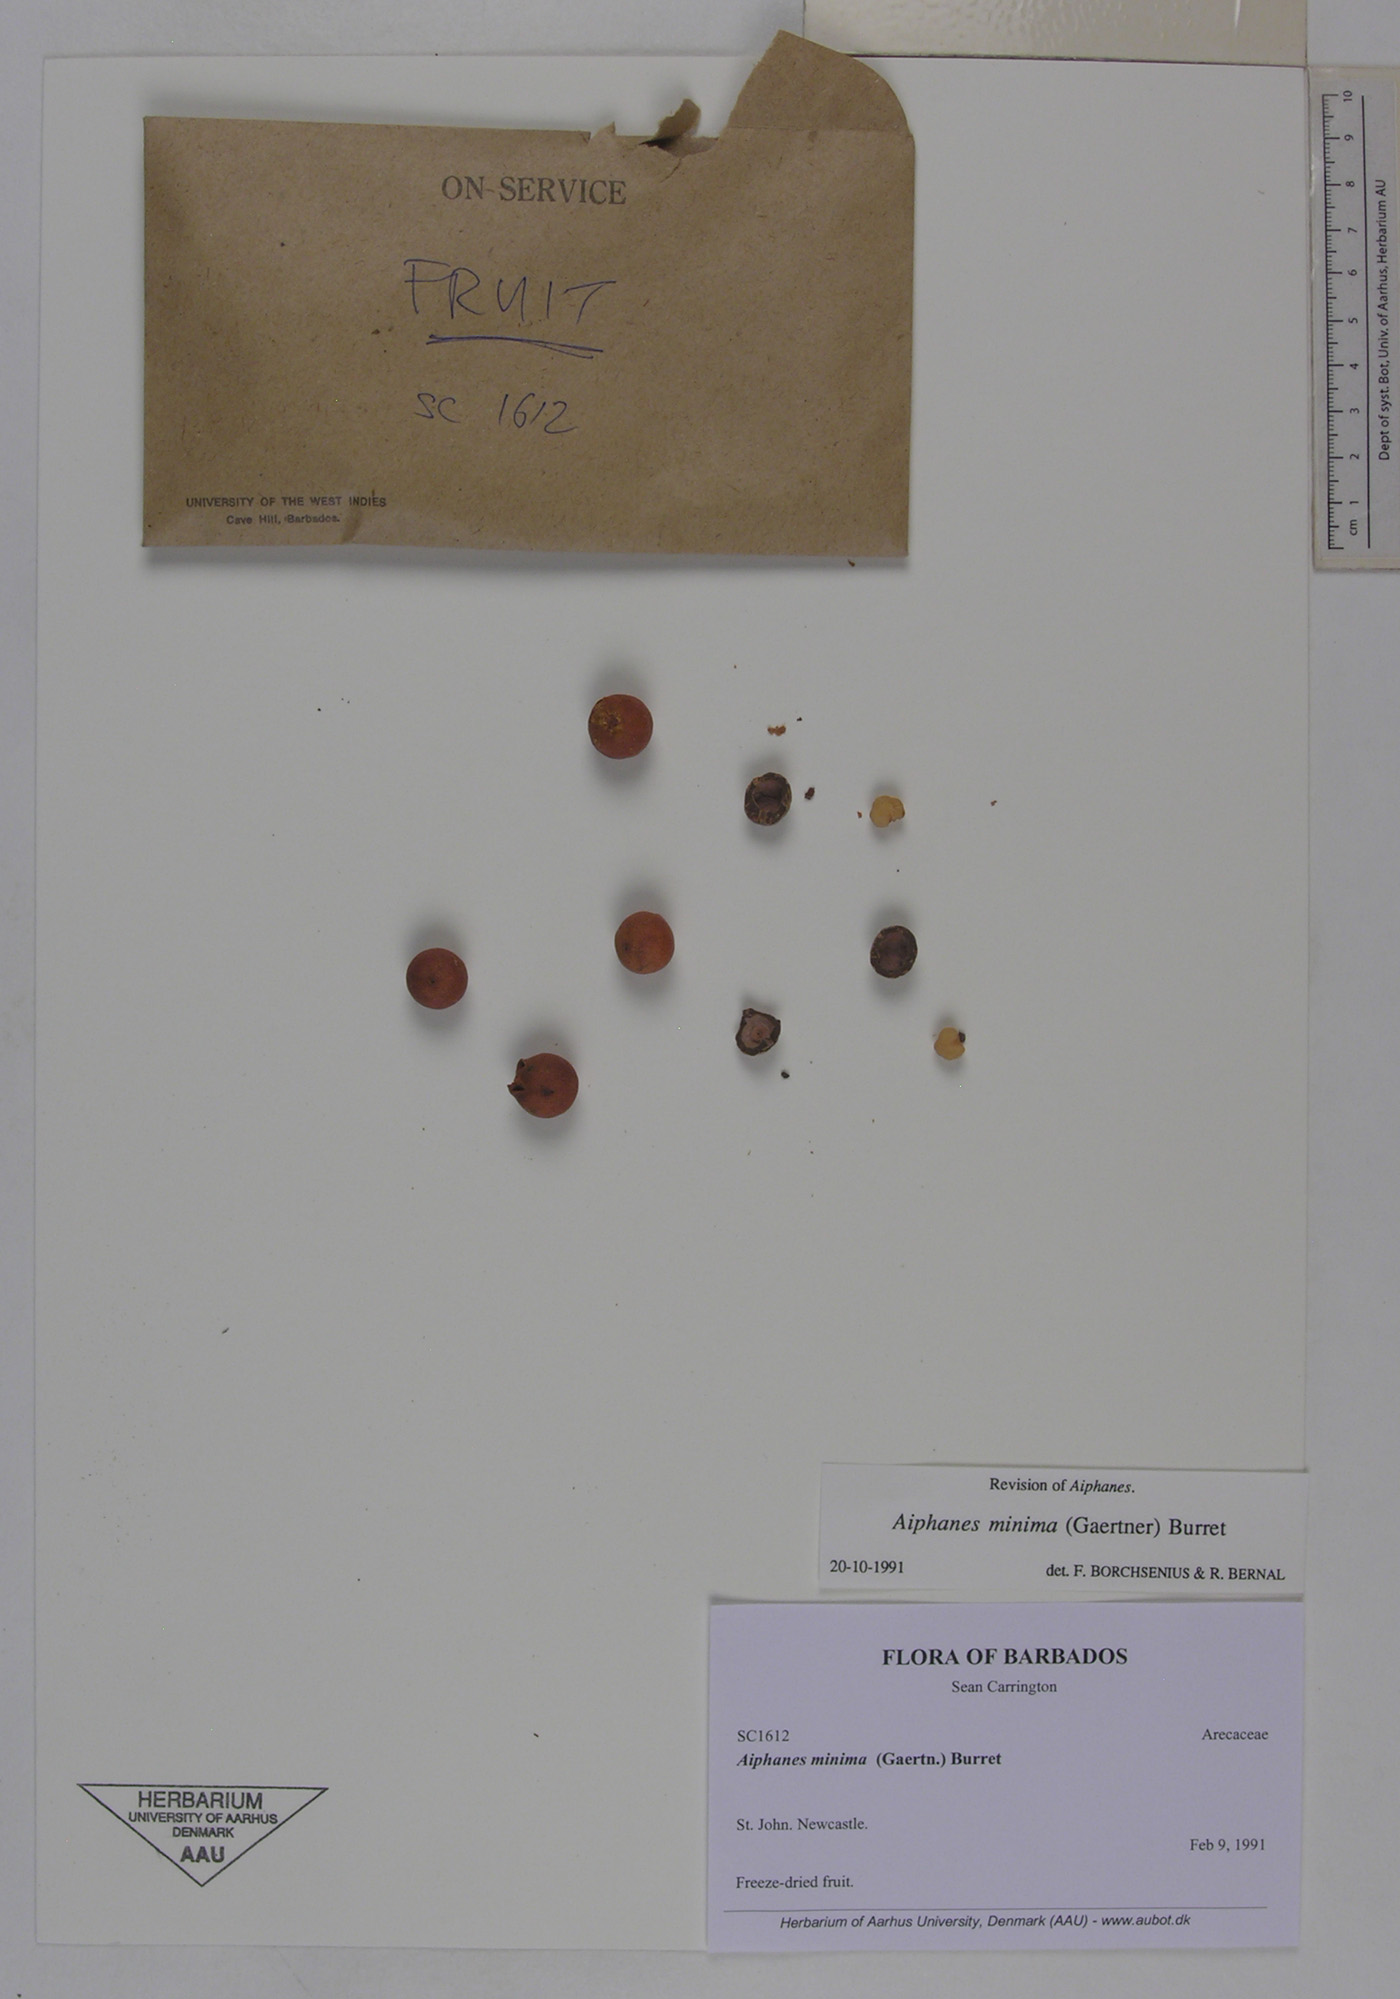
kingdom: Plantae
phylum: Tracheophyta
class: Liliopsida
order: Arecales
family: Arecaceae
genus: Aiphanes
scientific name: Aiphanes minima
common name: Grigri
